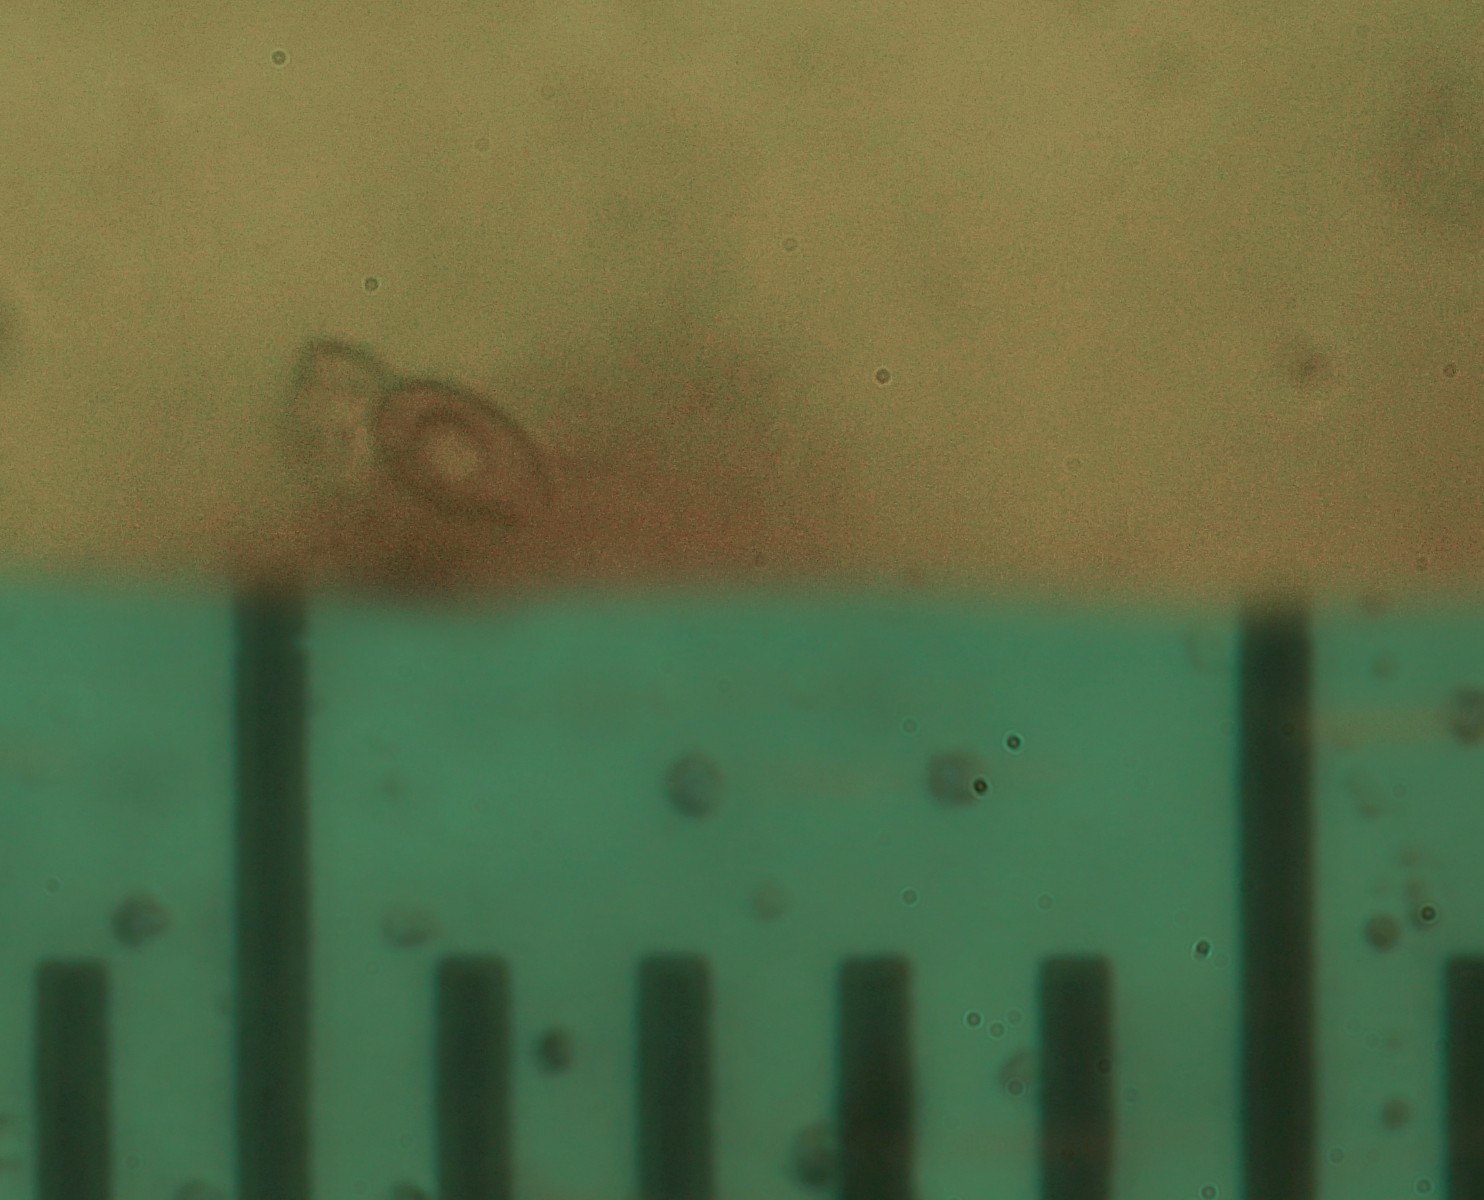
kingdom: Fungi
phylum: Basidiomycota
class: Agaricomycetes
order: Agaricales
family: Hymenogastraceae
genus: Galerina
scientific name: Galerina
